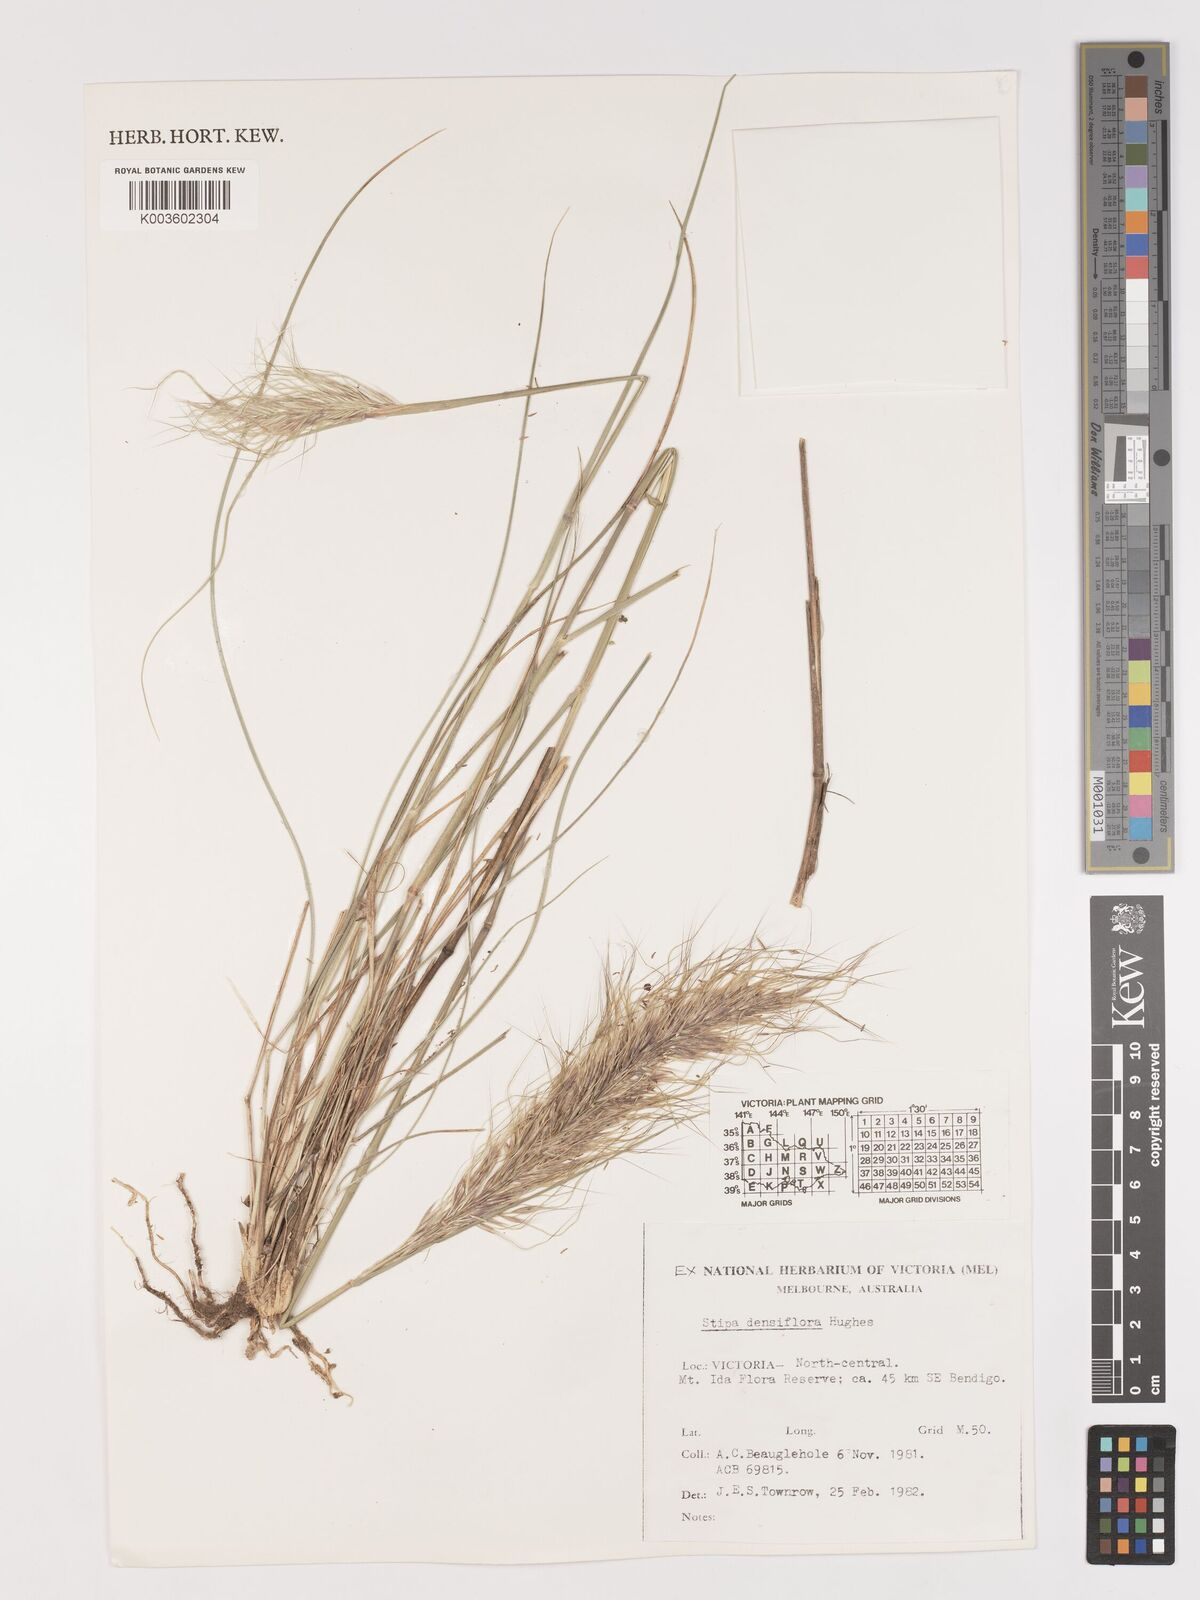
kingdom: Plantae
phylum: Tracheophyta
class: Liliopsida
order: Poales
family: Poaceae
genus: Stipa
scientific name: Stipa
